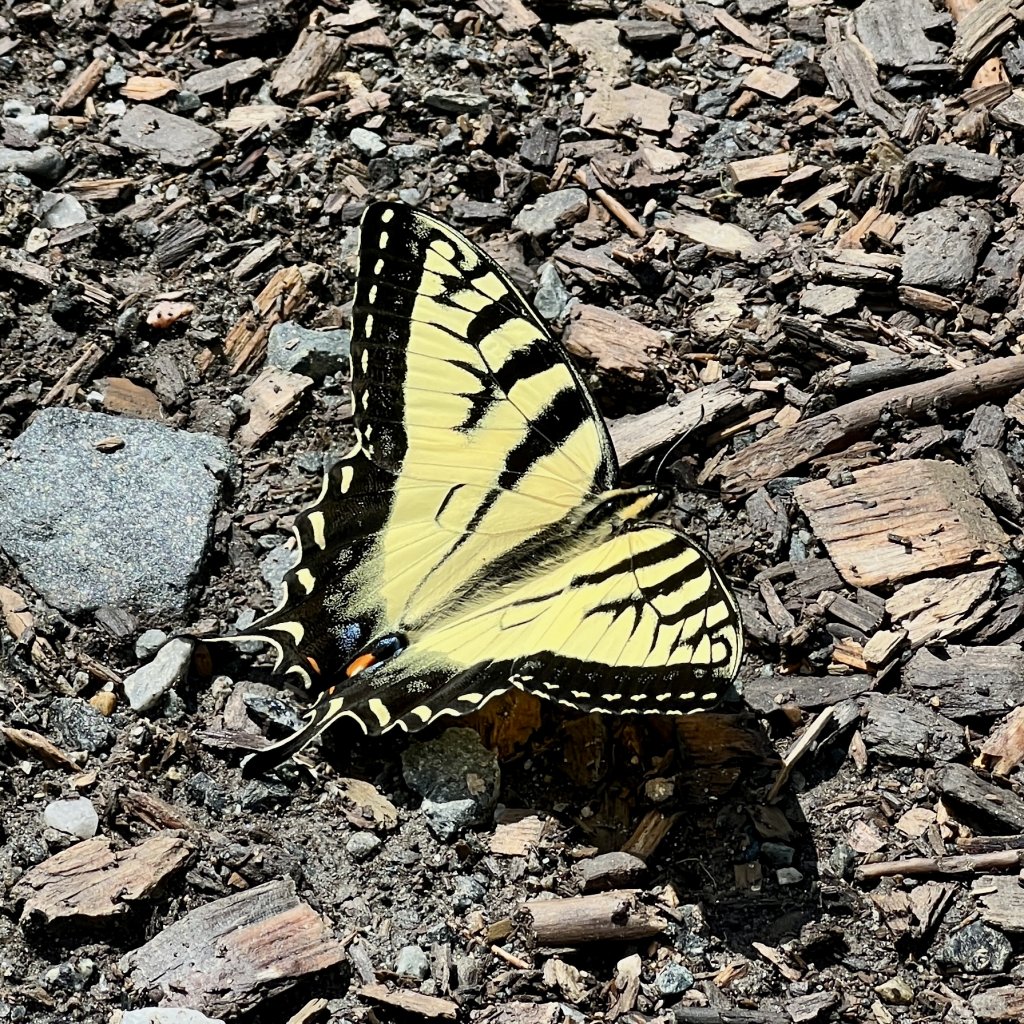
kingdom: Animalia
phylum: Arthropoda
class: Insecta
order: Lepidoptera
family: Papilionidae
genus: Pterourus
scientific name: Pterourus
